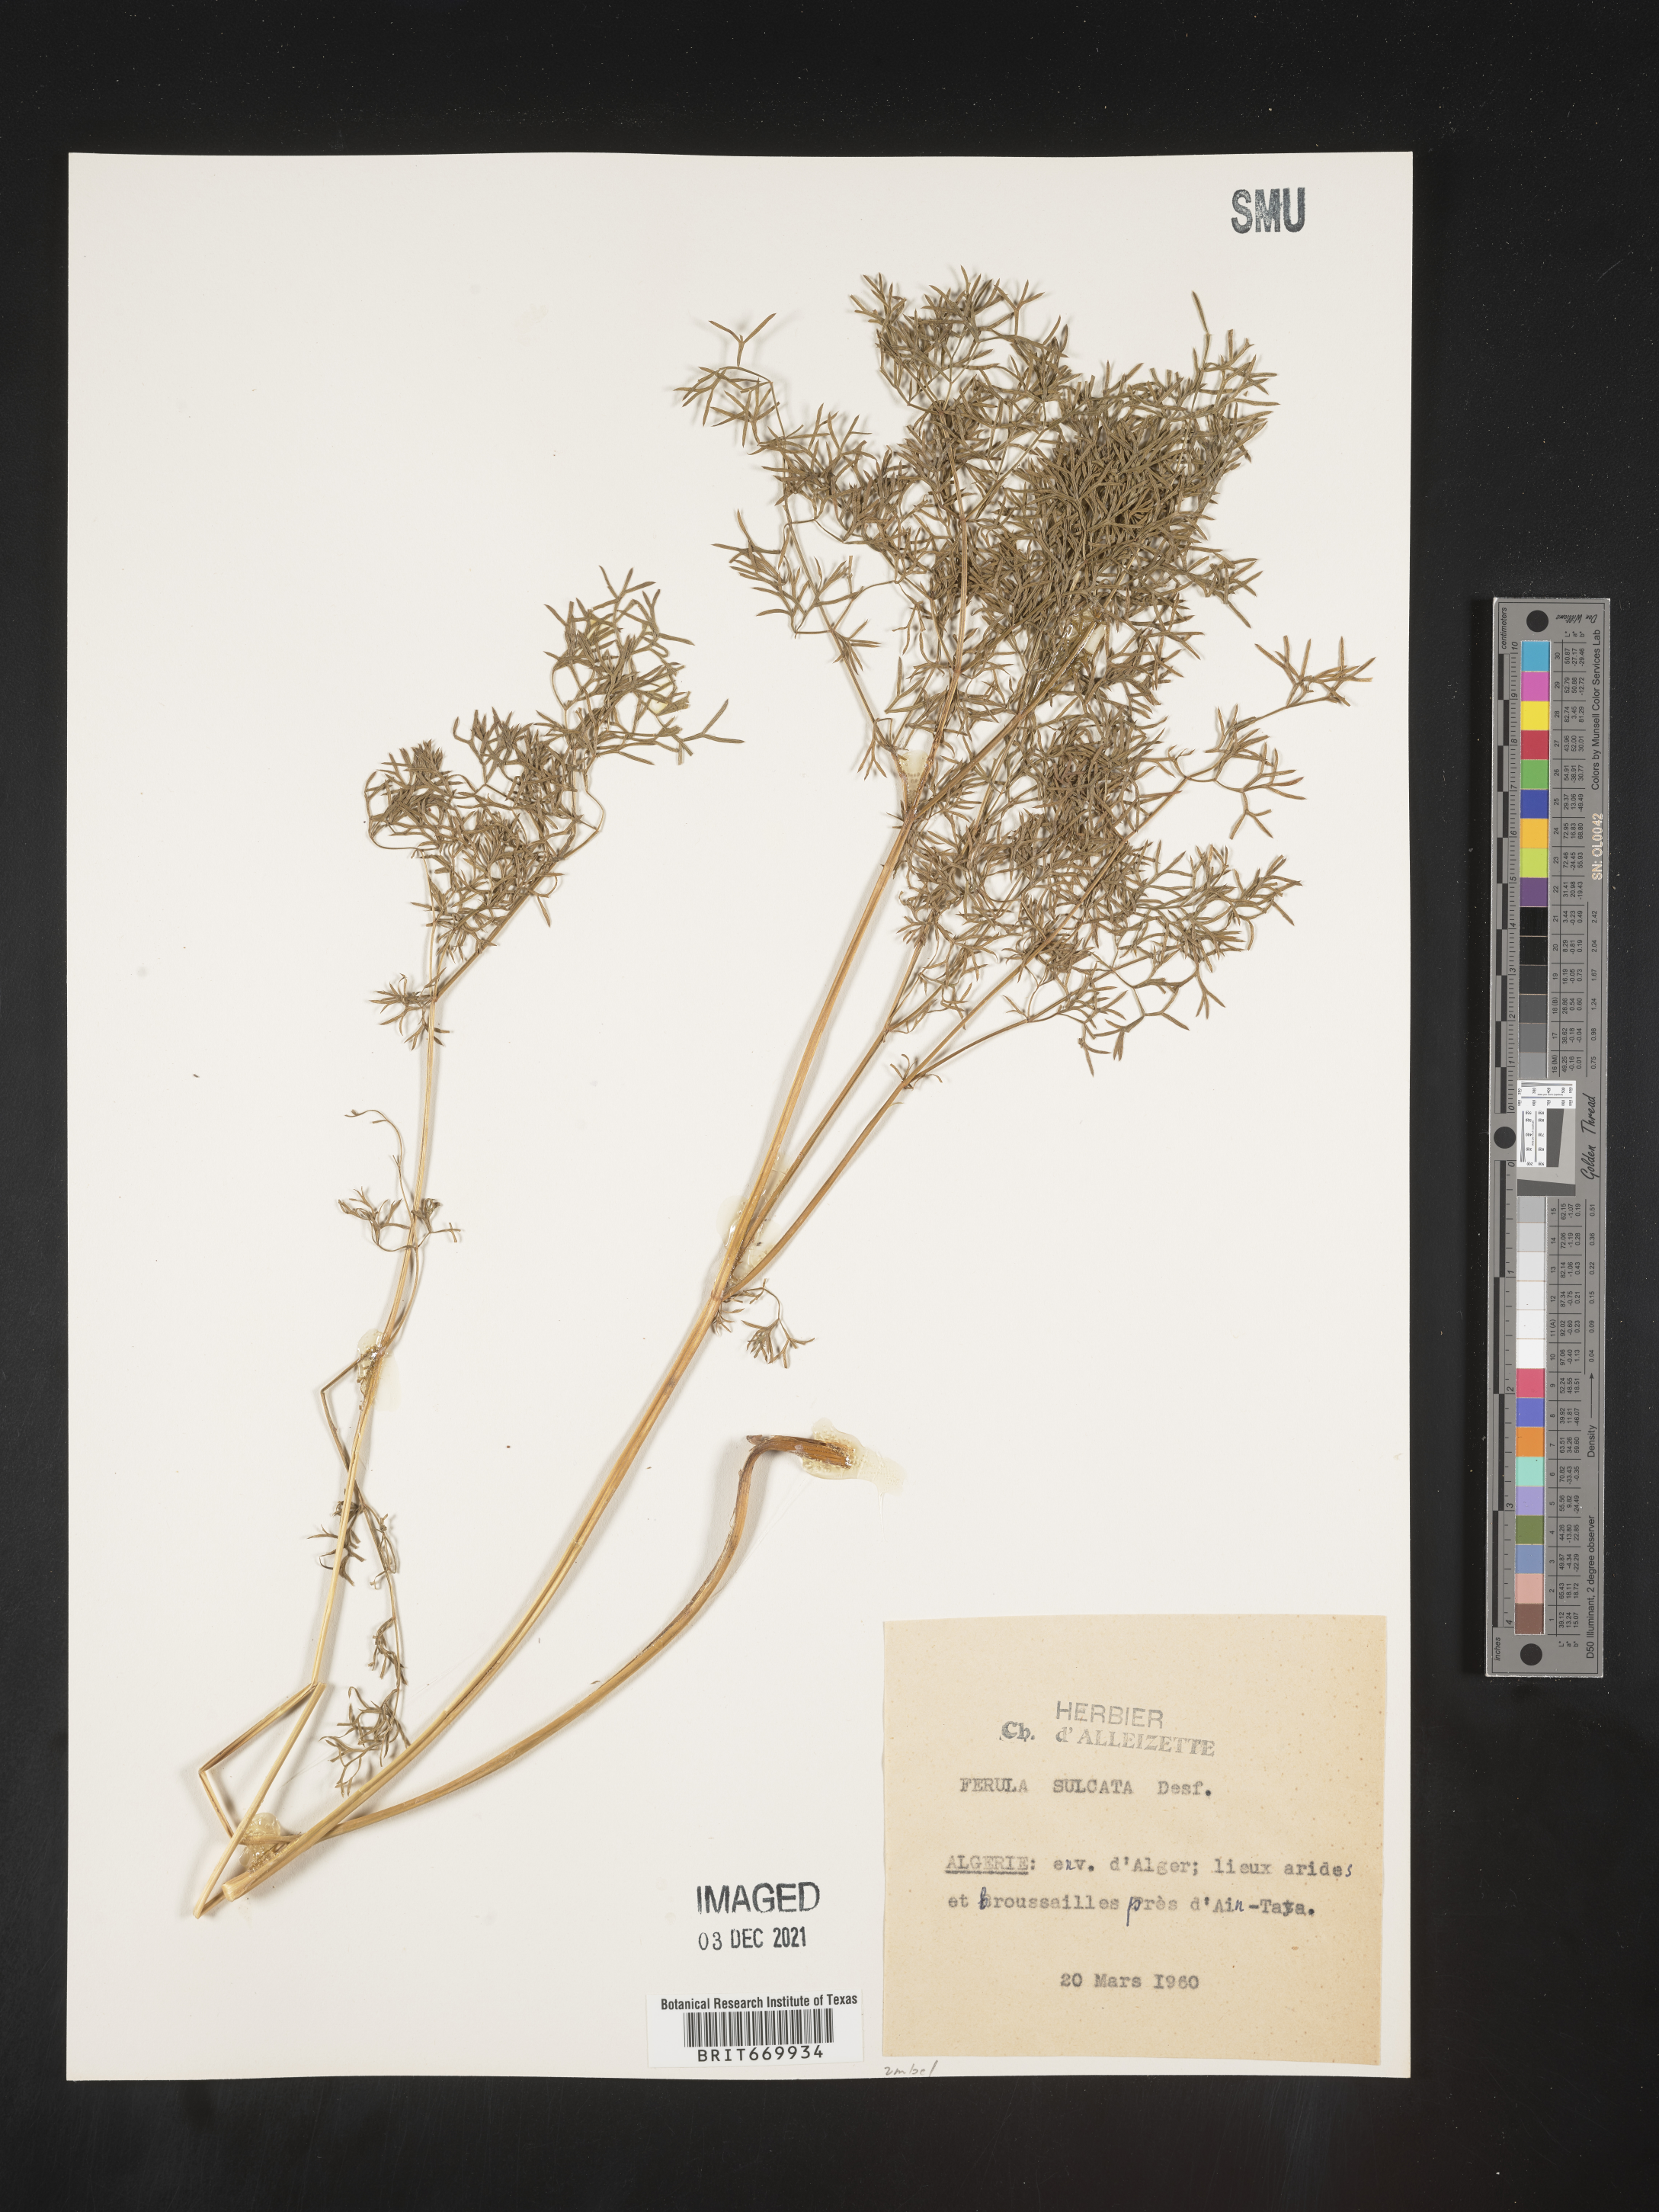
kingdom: Plantae
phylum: Tracheophyta
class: Magnoliopsida
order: Apiales
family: Apiaceae
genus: Ferula
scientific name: Ferula
